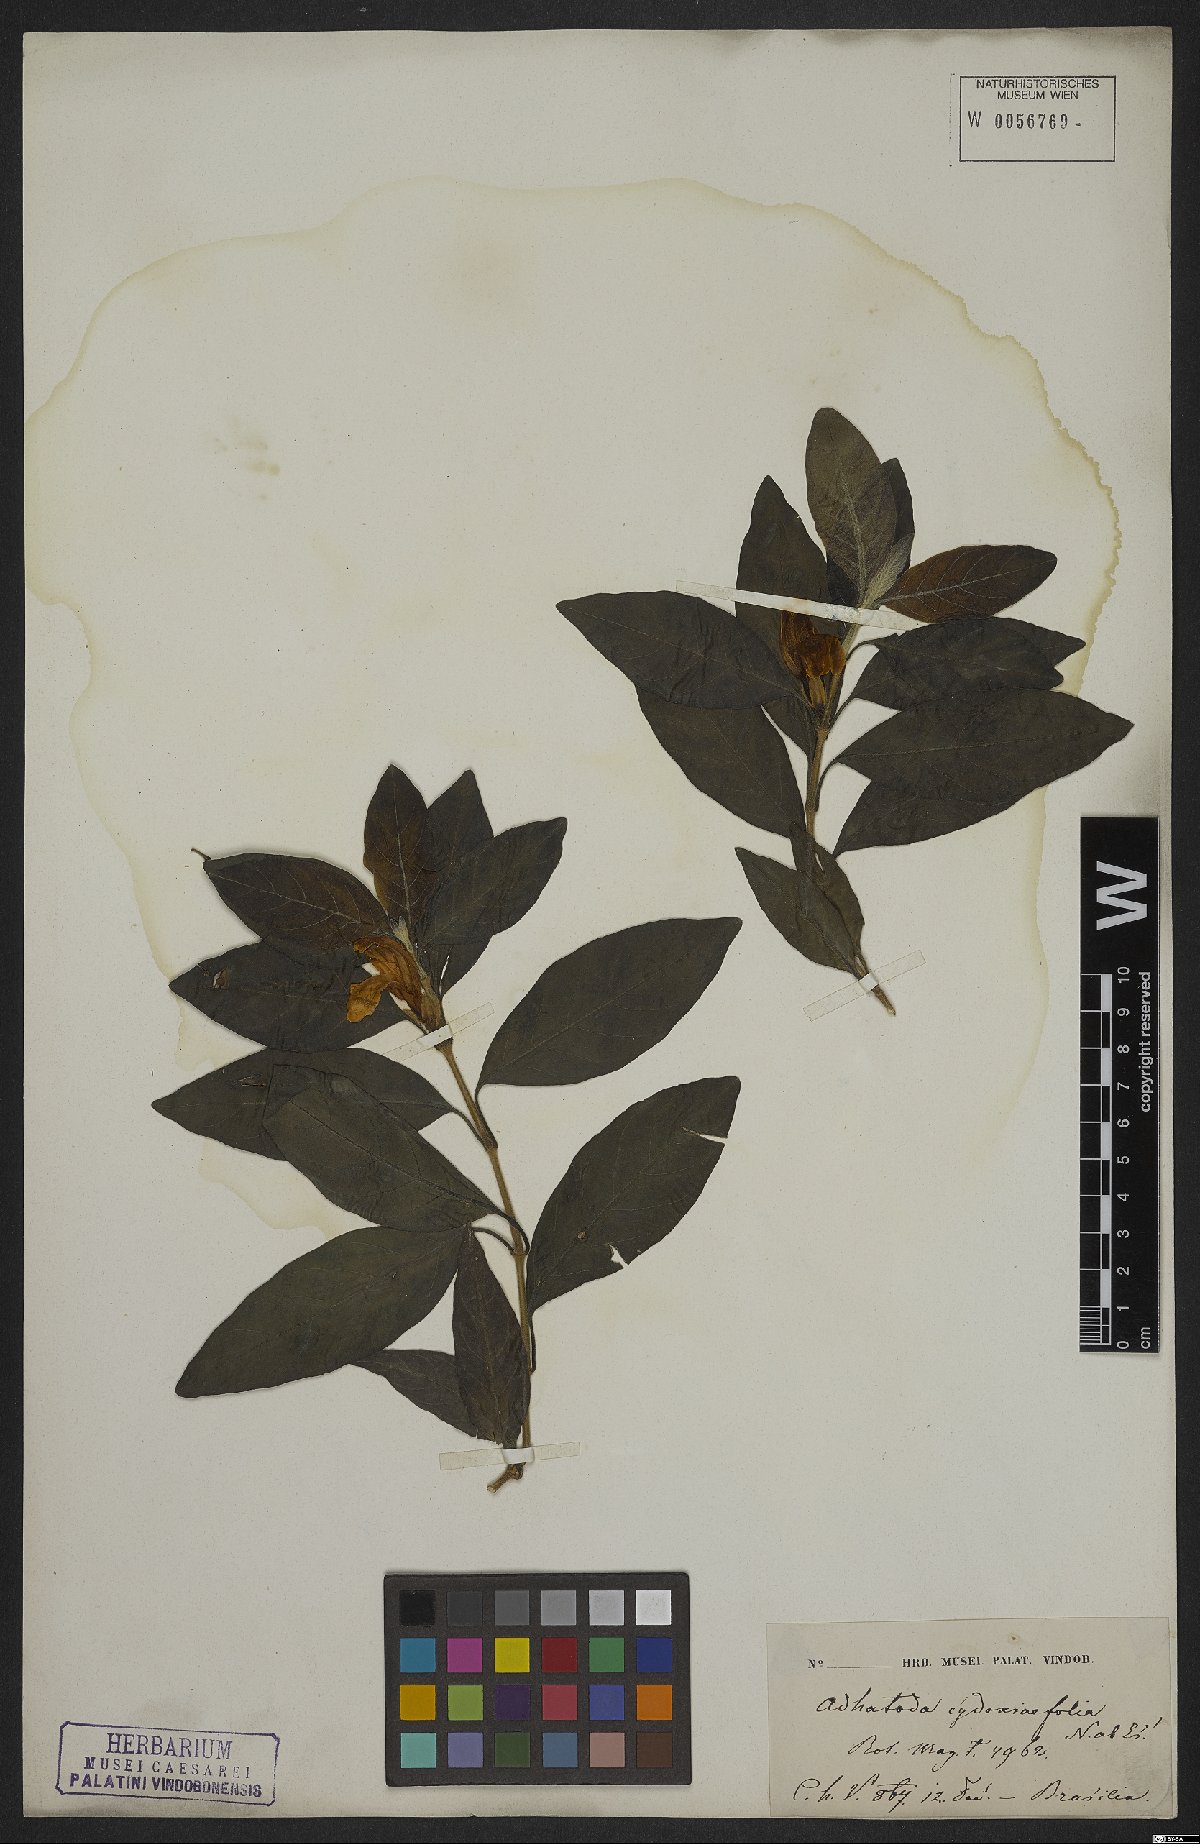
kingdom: Plantae
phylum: Tracheophyta
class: Magnoliopsida
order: Lamiales
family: Acanthaceae
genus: Justicia
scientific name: Justicia cydoniifolia
